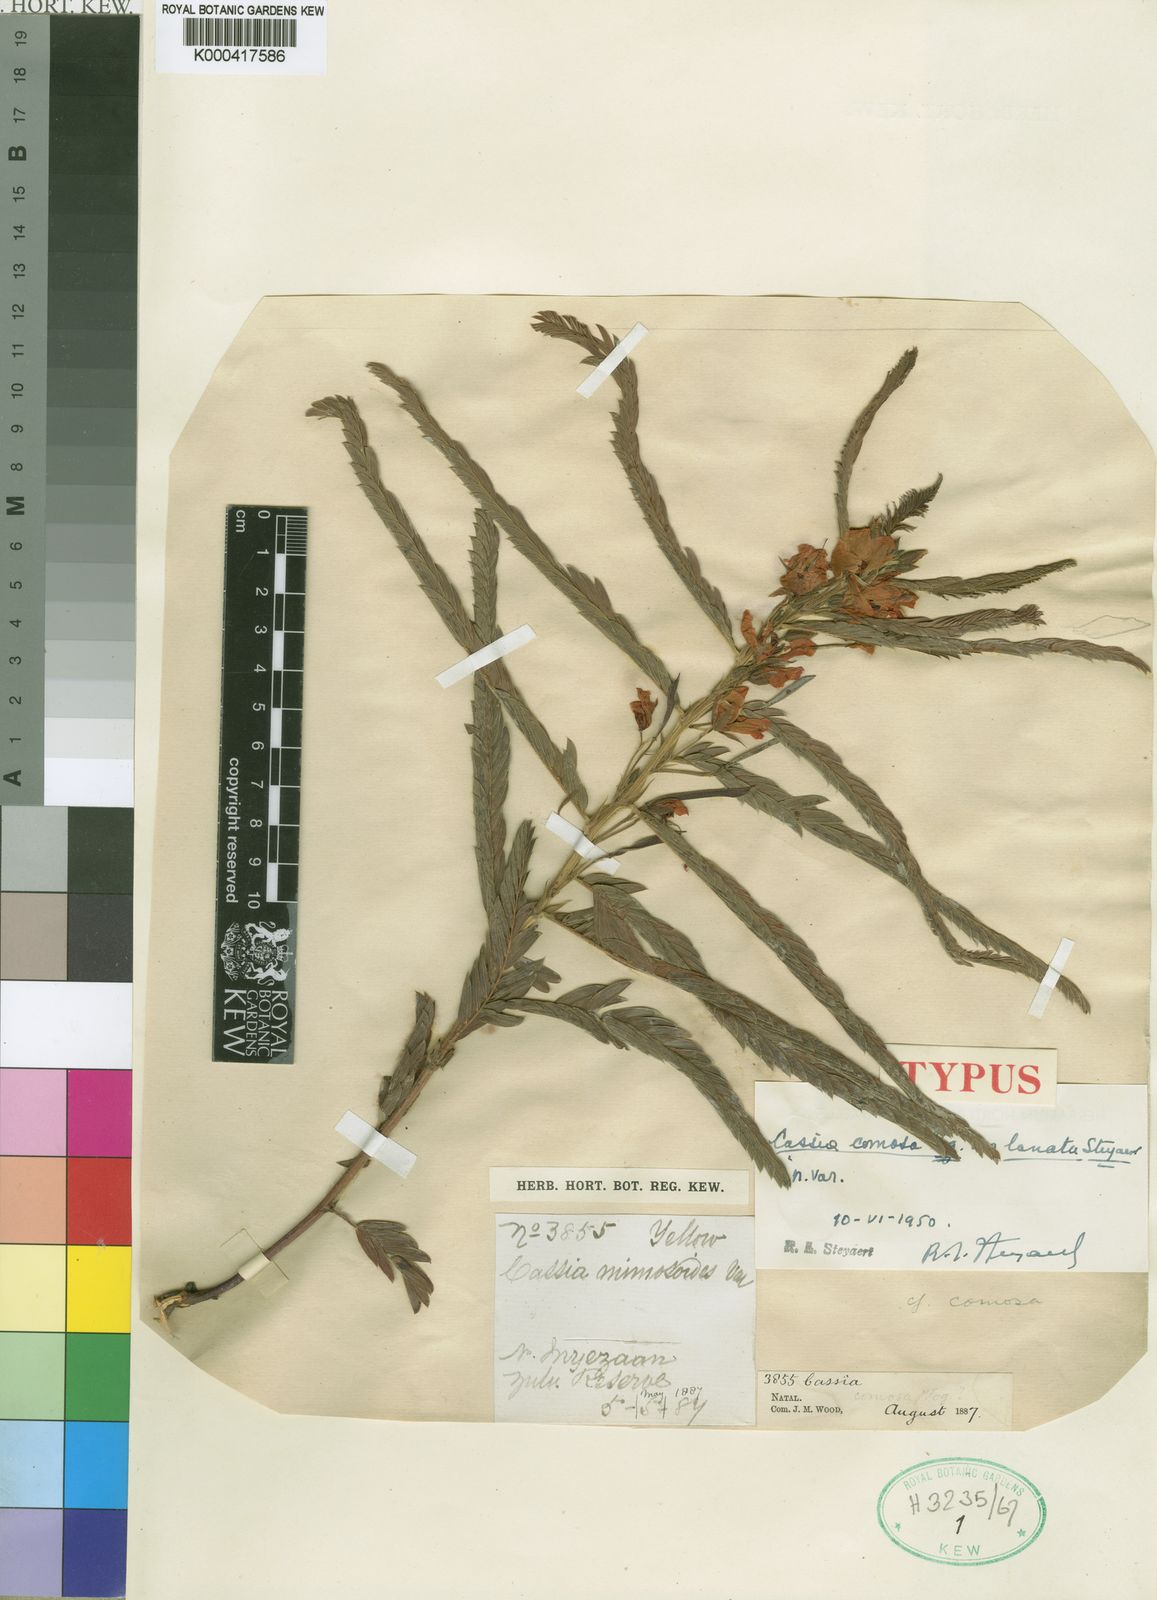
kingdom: Plantae
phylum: Tracheophyta
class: Magnoliopsida
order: Fabales
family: Fabaceae
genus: Chamaecrista
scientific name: Chamaecrista comosa
